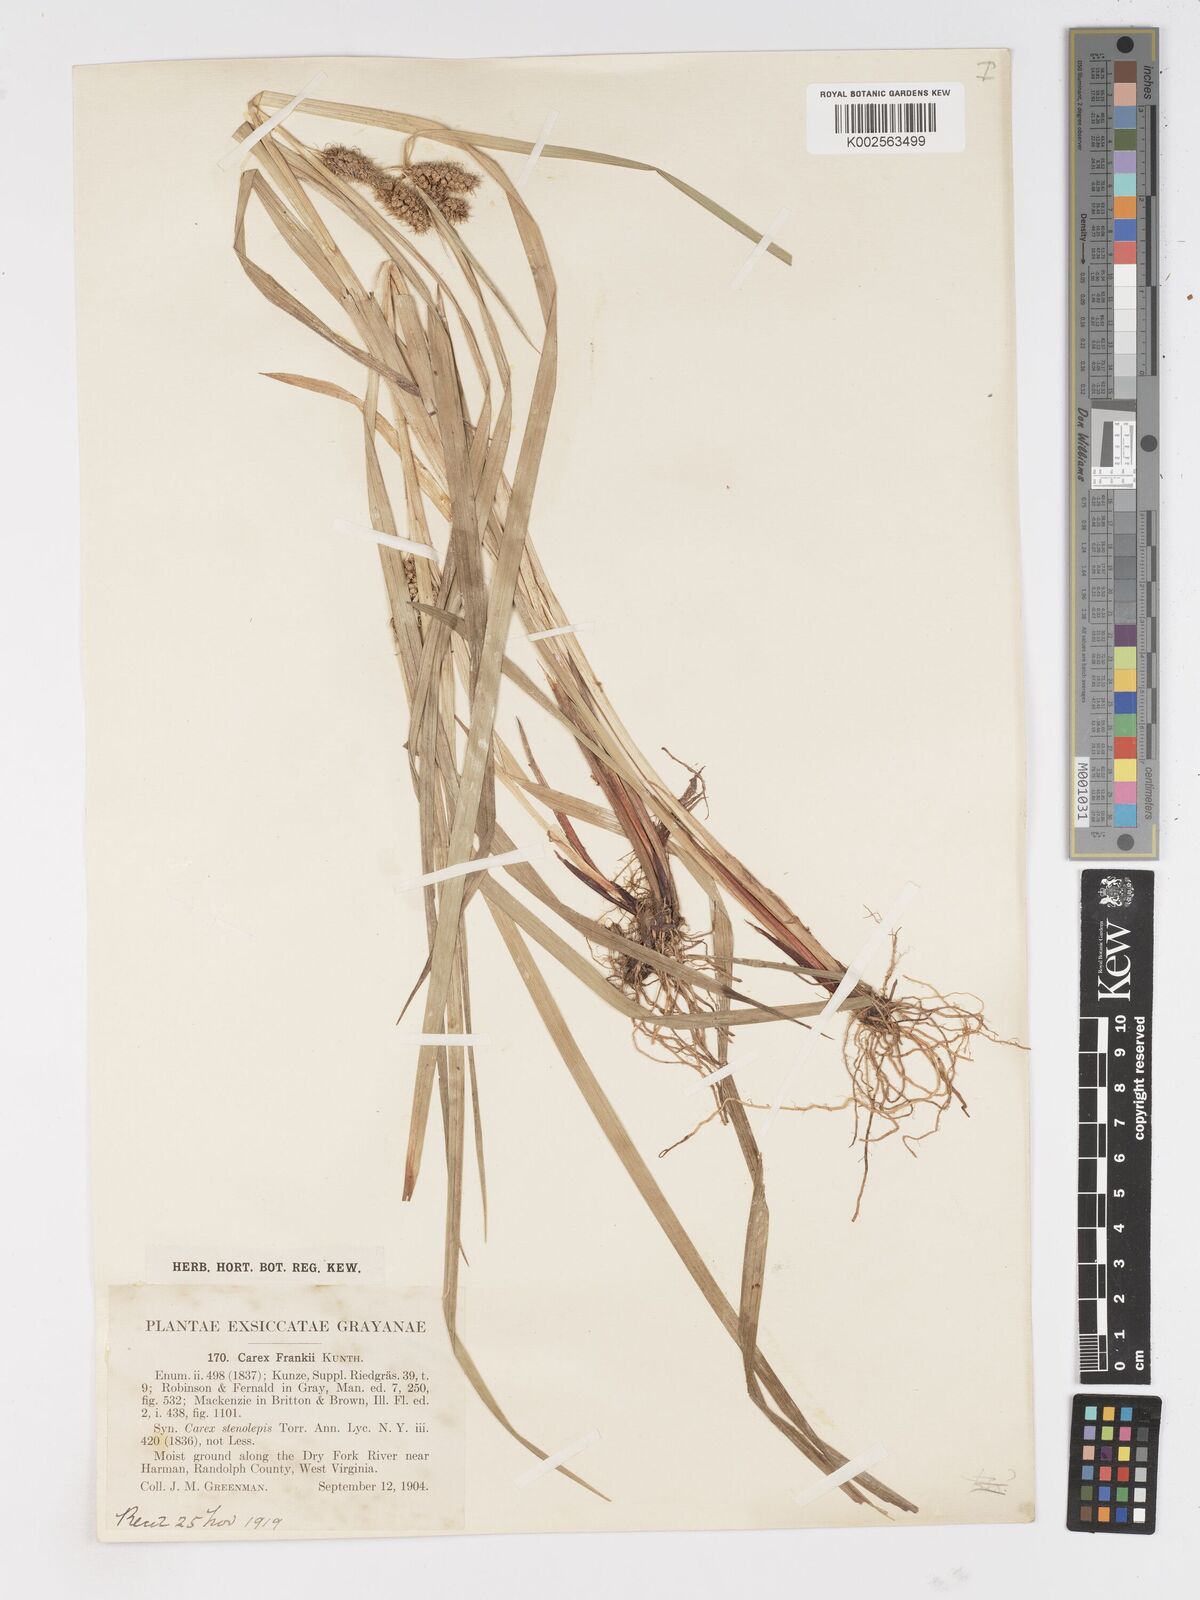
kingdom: Plantae
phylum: Tracheophyta
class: Liliopsida
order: Poales
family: Cyperaceae
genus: Carex
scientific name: Carex frankii
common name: Frank's sedge
